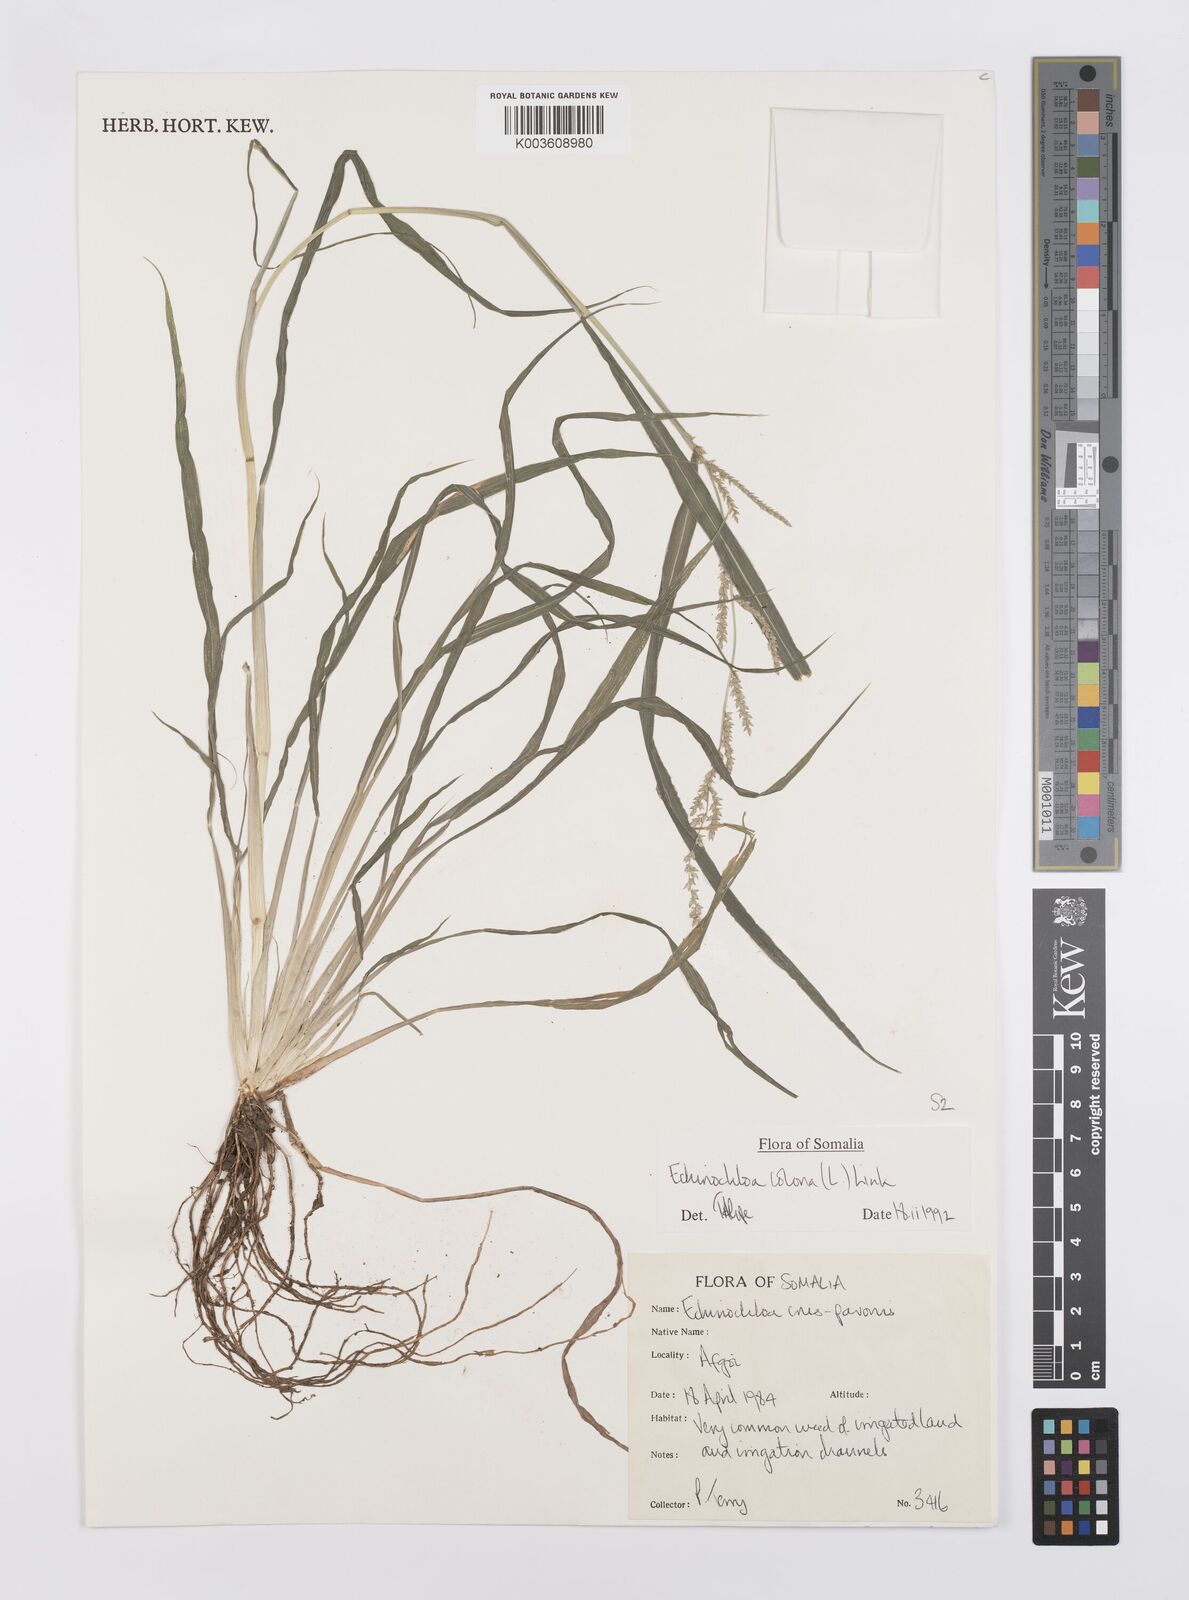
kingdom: Plantae
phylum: Tracheophyta
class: Liliopsida
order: Poales
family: Poaceae
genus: Echinochloa
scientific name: Echinochloa colonum
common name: Jungle rice
